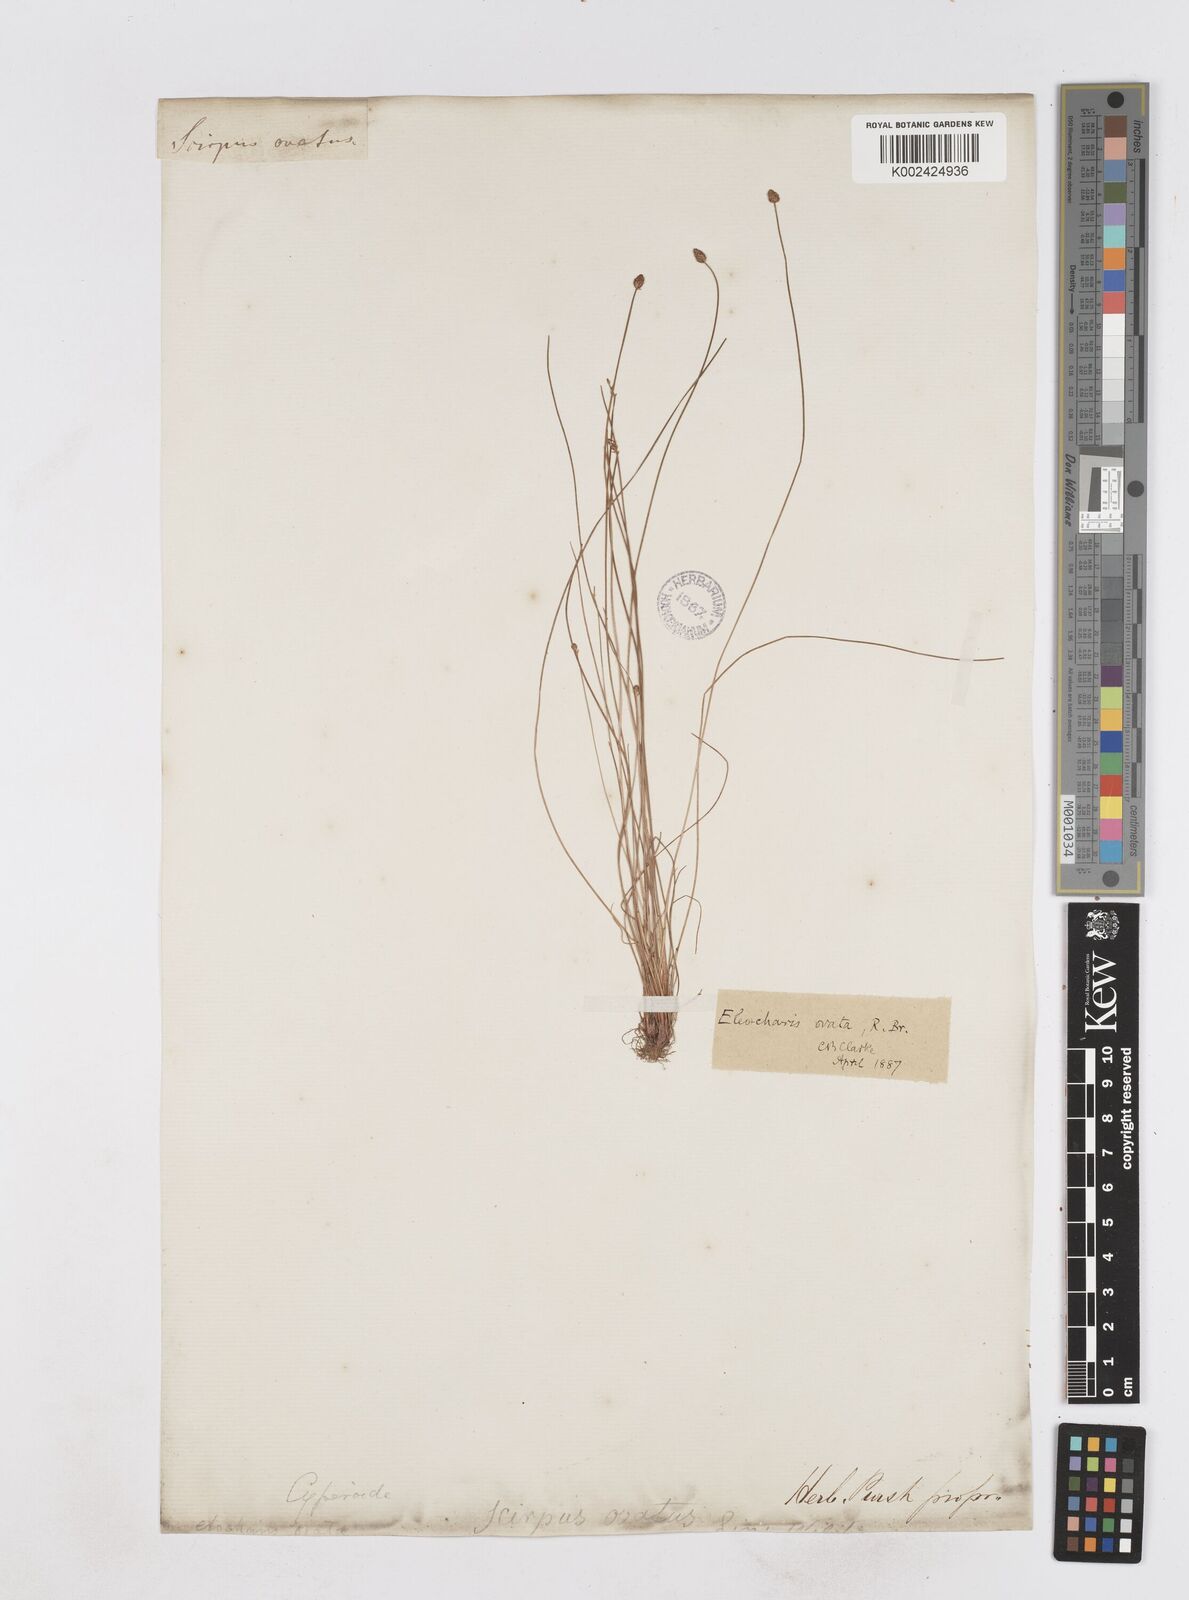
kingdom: Plantae
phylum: Tracheophyta
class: Liliopsida
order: Poales
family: Cyperaceae
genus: Eleocharis
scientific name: Eleocharis ovata
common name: Oval spike-rush
